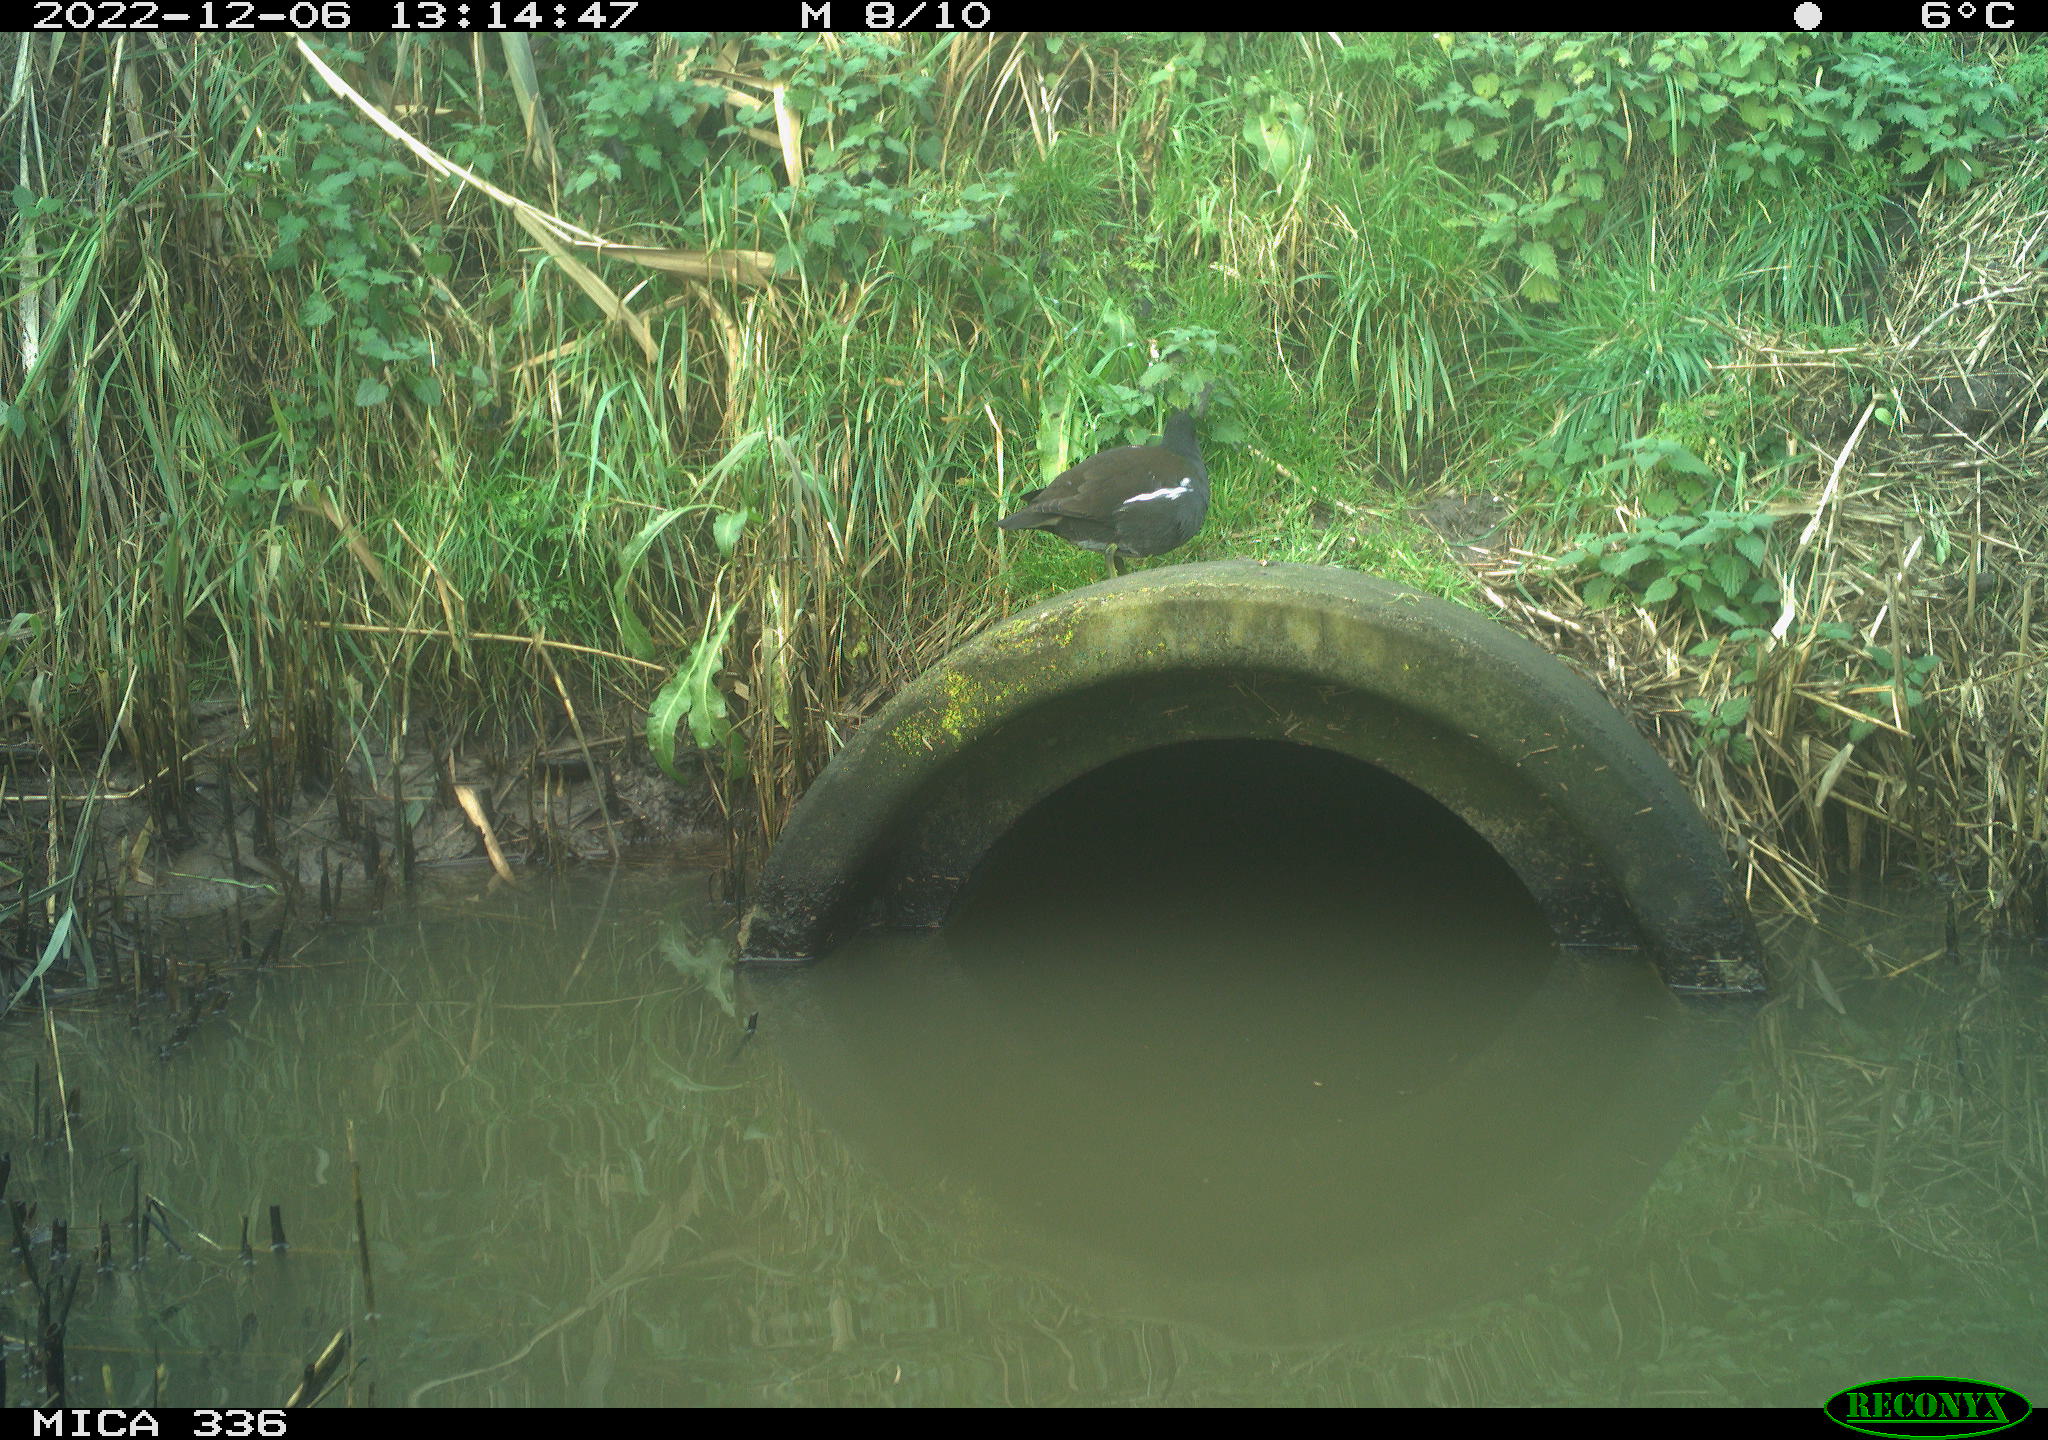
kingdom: Animalia
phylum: Chordata
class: Aves
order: Gruiformes
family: Rallidae
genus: Gallinula
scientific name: Gallinula chloropus
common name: Common moorhen
